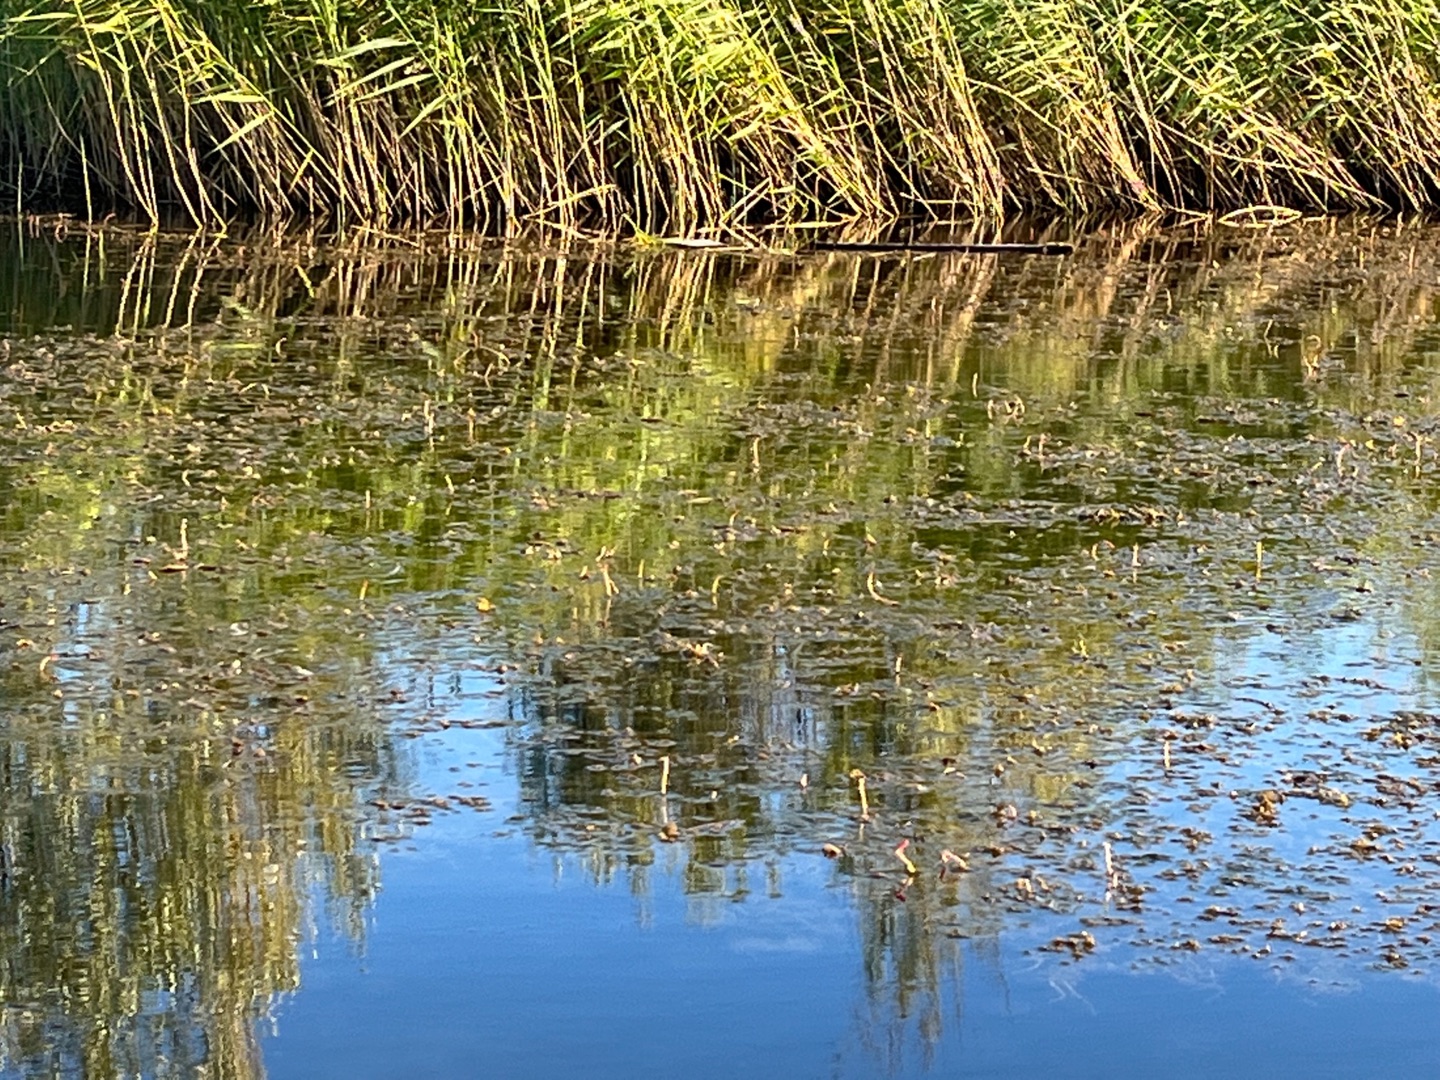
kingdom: Plantae
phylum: Tracheophyta
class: Magnoliopsida
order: Saxifragales
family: Haloragaceae
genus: Myriophyllum
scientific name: Myriophyllum spicatum
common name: Aks-tusindblad
